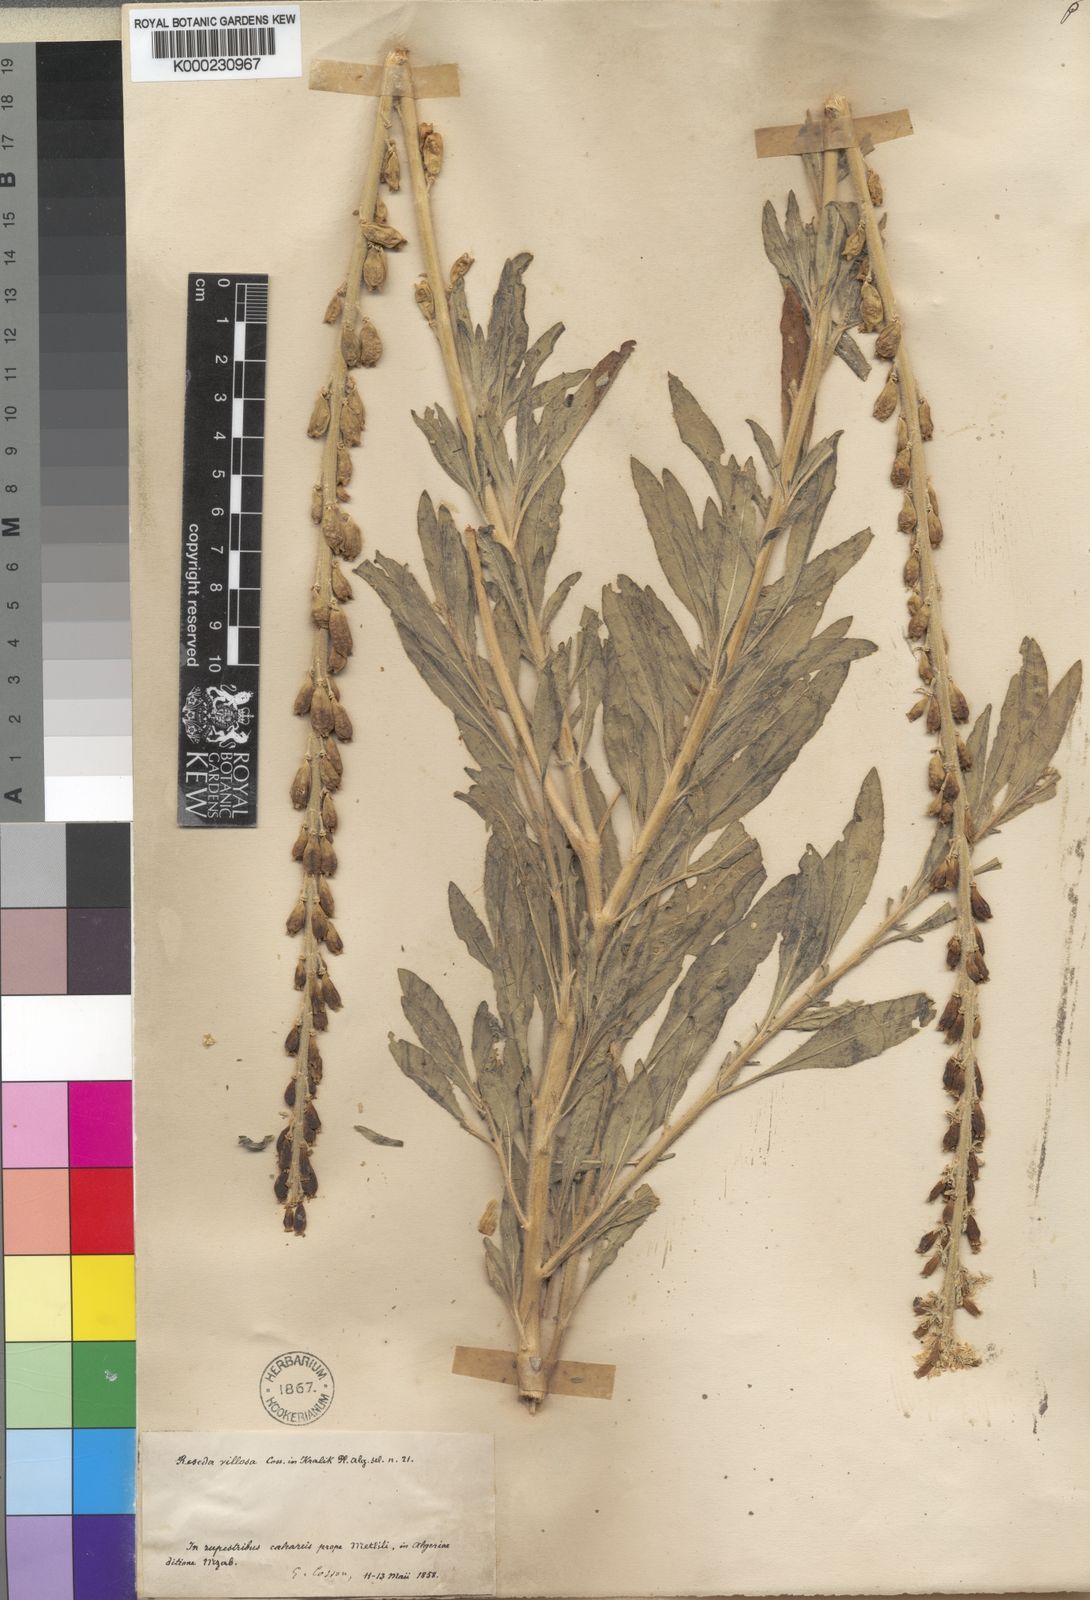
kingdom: Plantae
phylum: Tracheophyta
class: Magnoliopsida
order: Brassicales
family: Resedaceae
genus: Reseda
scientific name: Reseda villosa
